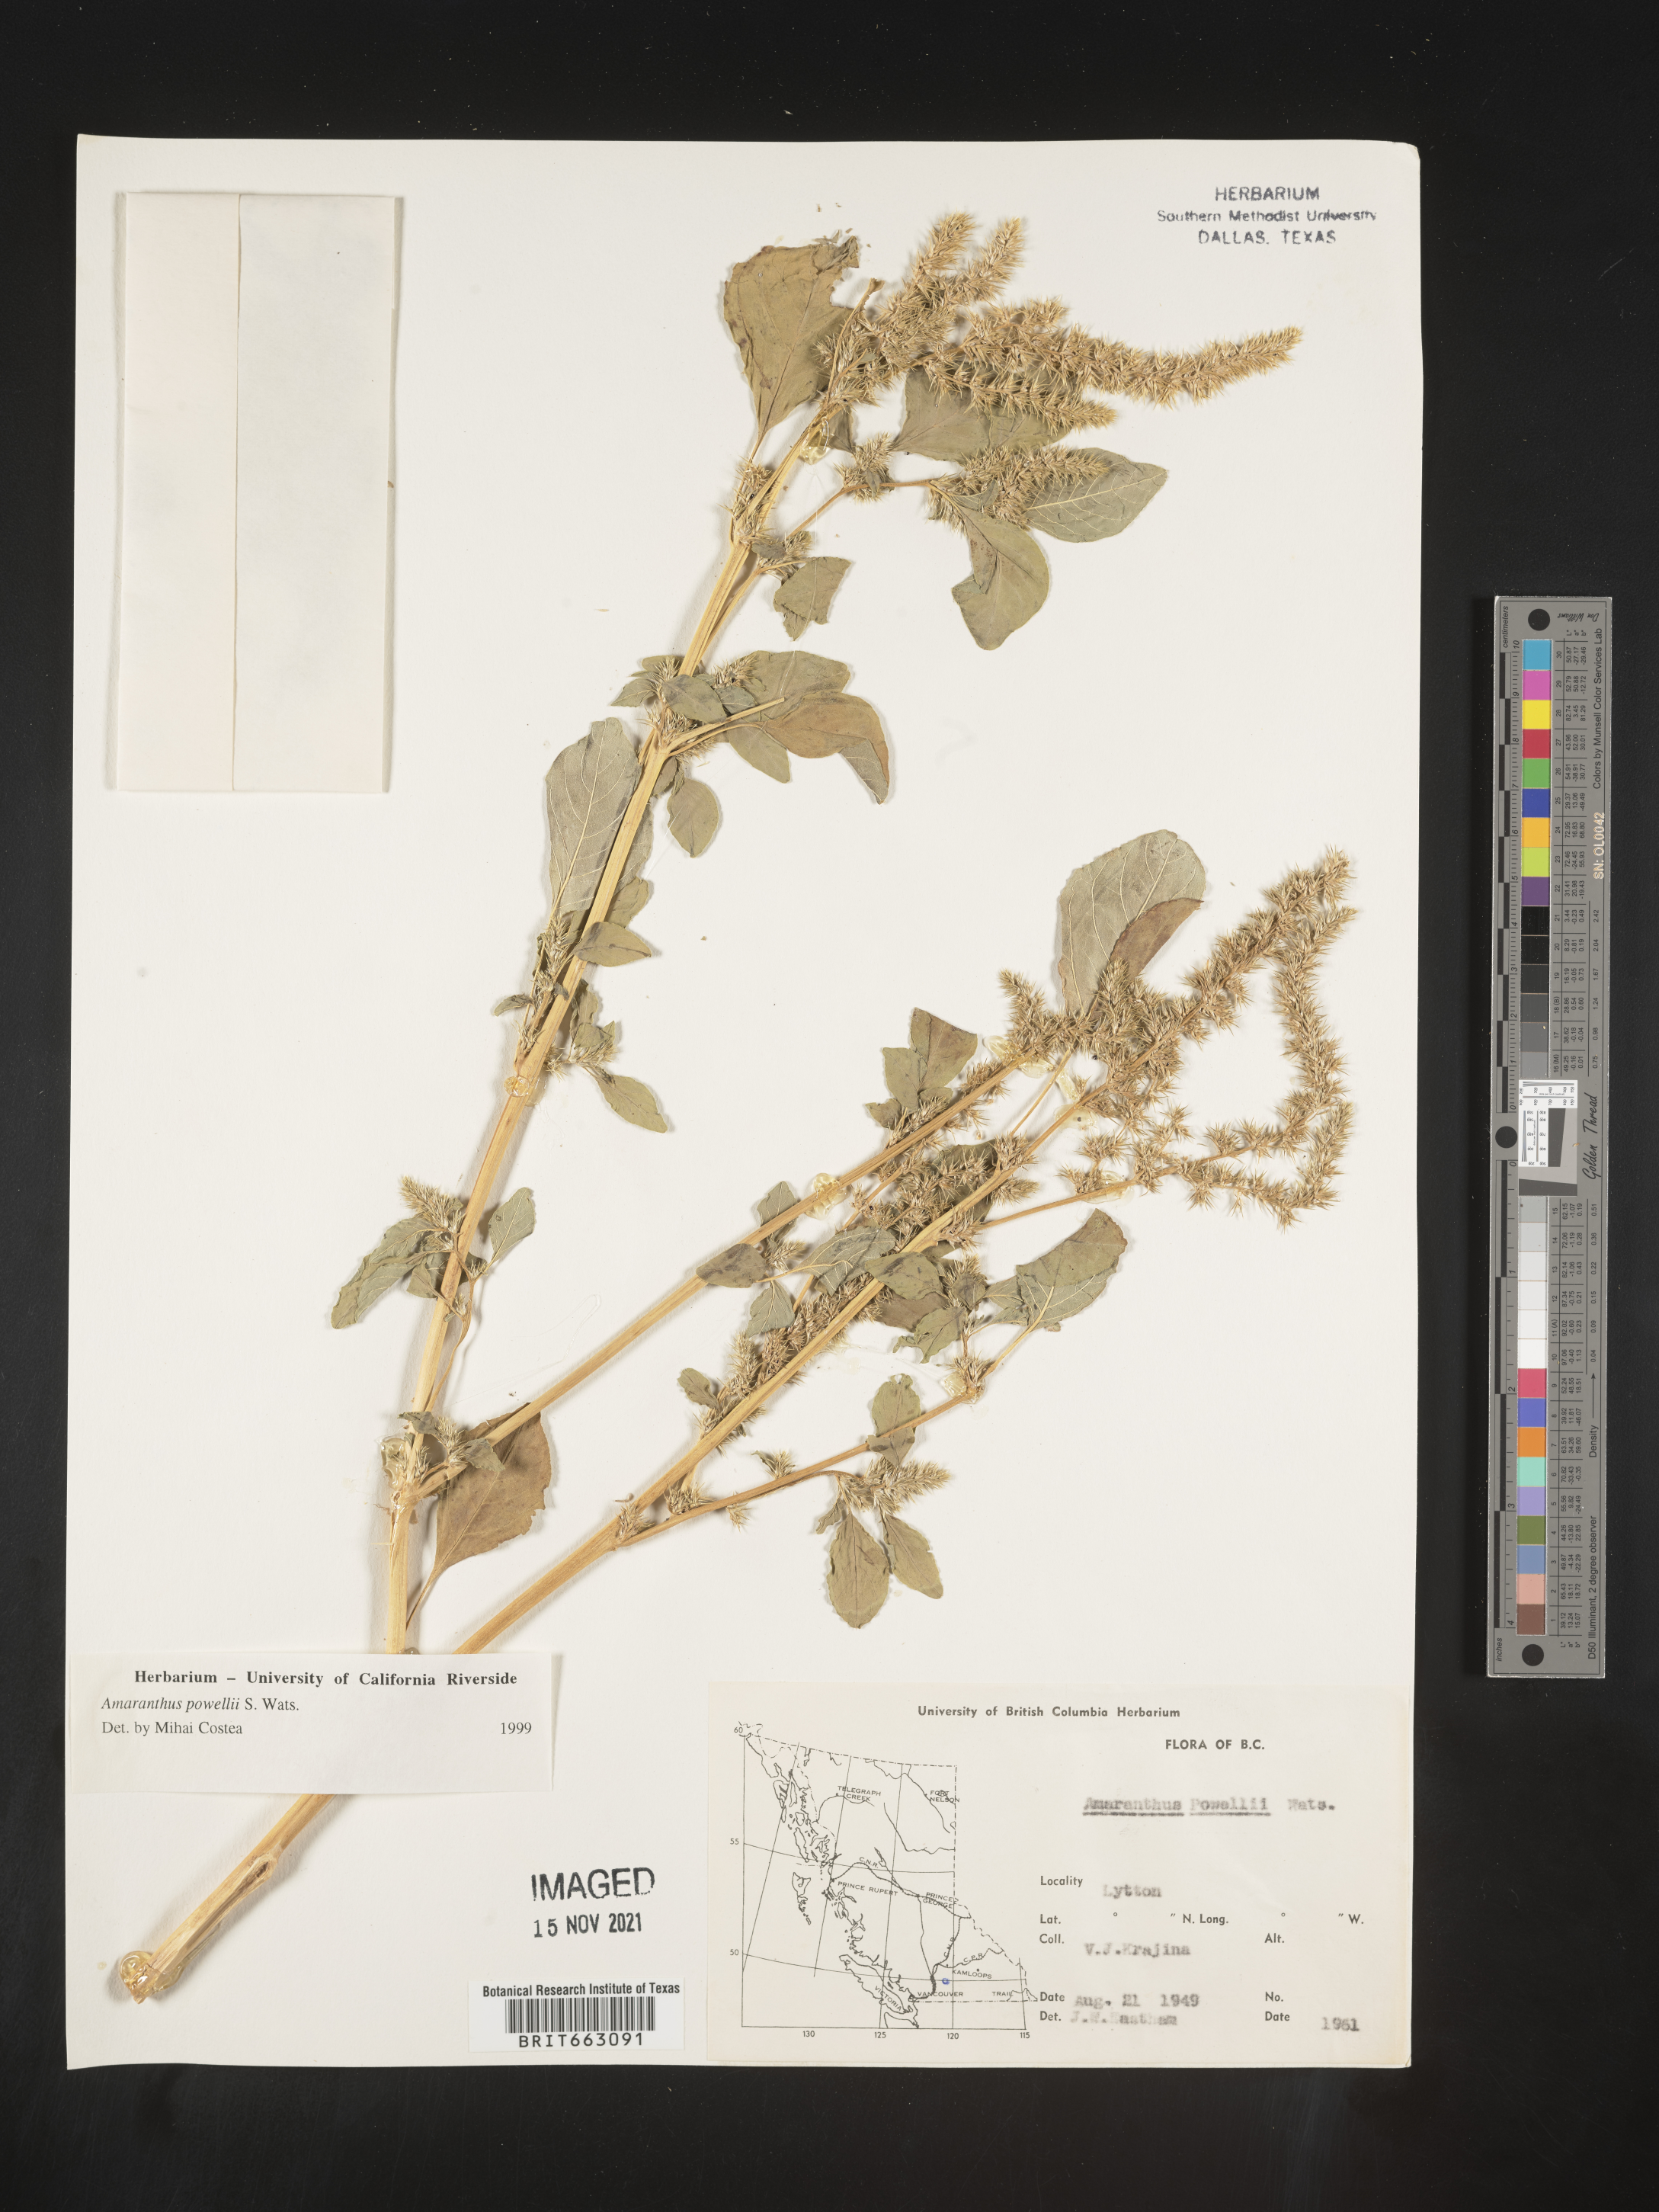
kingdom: Plantae
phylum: Tracheophyta
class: Magnoliopsida
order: Caryophyllales
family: Amaranthaceae
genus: Amaranthus
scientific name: Amaranthus powellii
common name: Powell's amaranth
